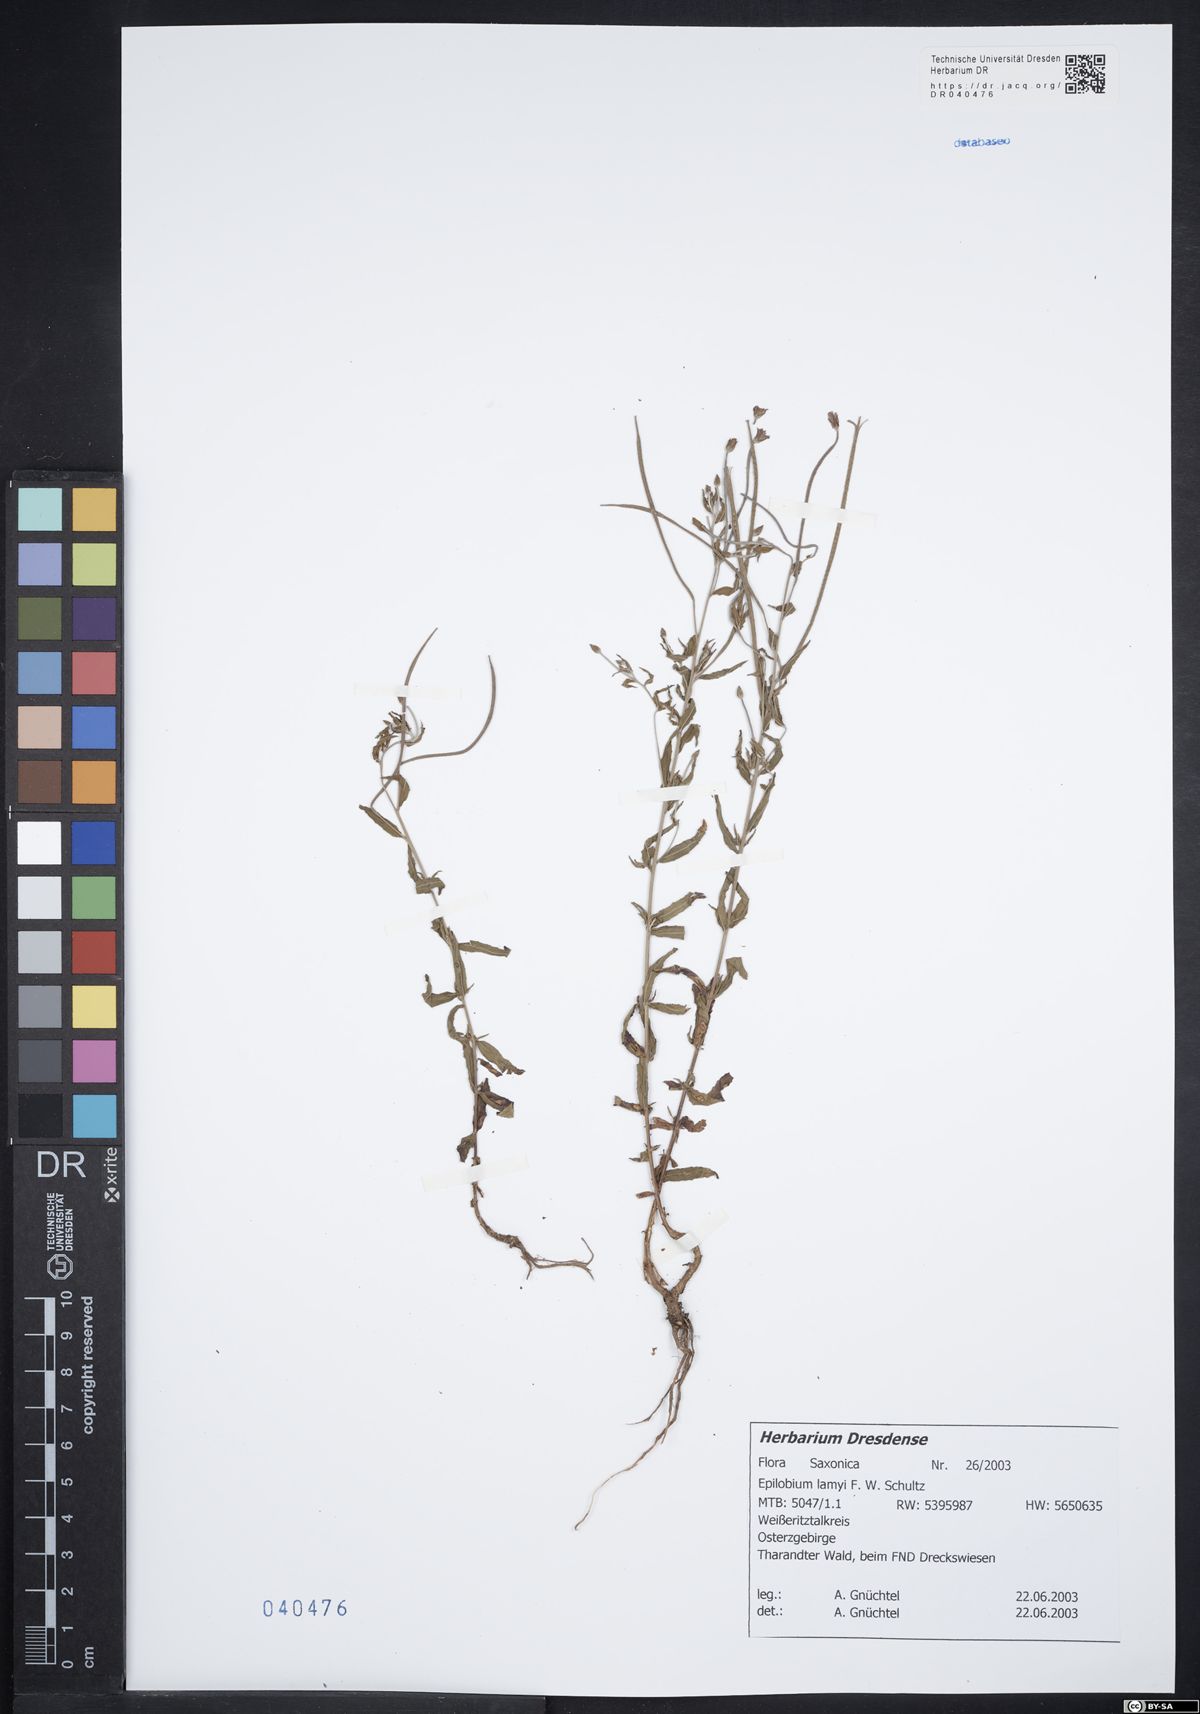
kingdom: Plantae
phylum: Tracheophyta
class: Magnoliopsida
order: Myrtales
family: Onagraceae
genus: Epilobium
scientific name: Epilobium lamyi
